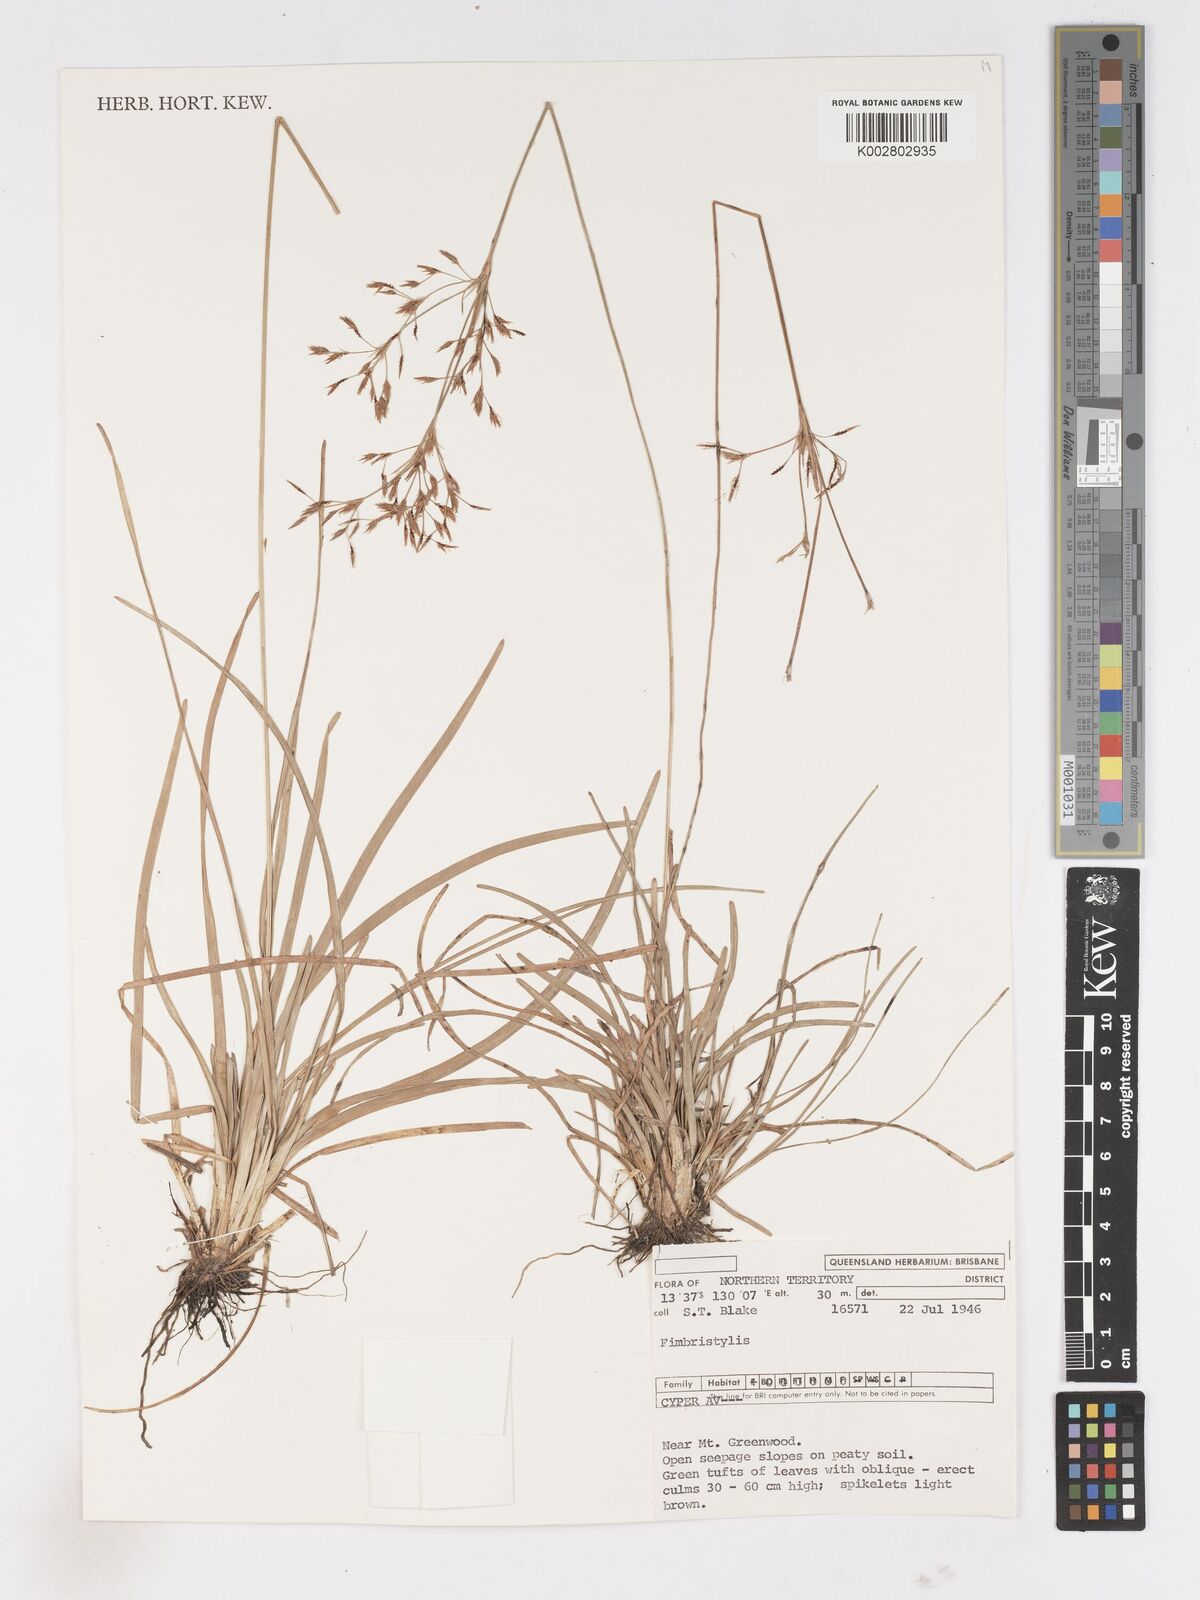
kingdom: Plantae
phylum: Tracheophyta
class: Liliopsida
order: Poales
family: Cyperaceae
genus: Fimbristylis
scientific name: Fimbristylis
